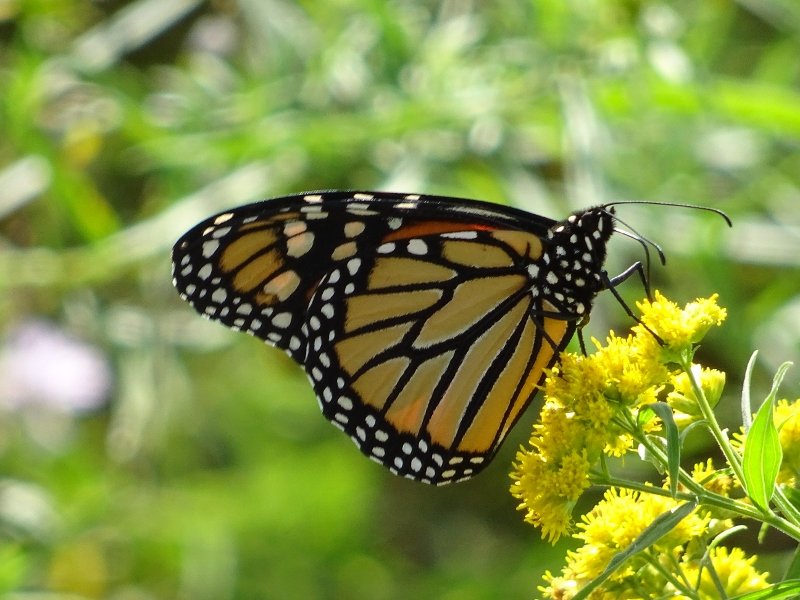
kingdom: Animalia
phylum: Arthropoda
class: Insecta
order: Lepidoptera
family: Nymphalidae
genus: Danaus
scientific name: Danaus plexippus
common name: Monarch
